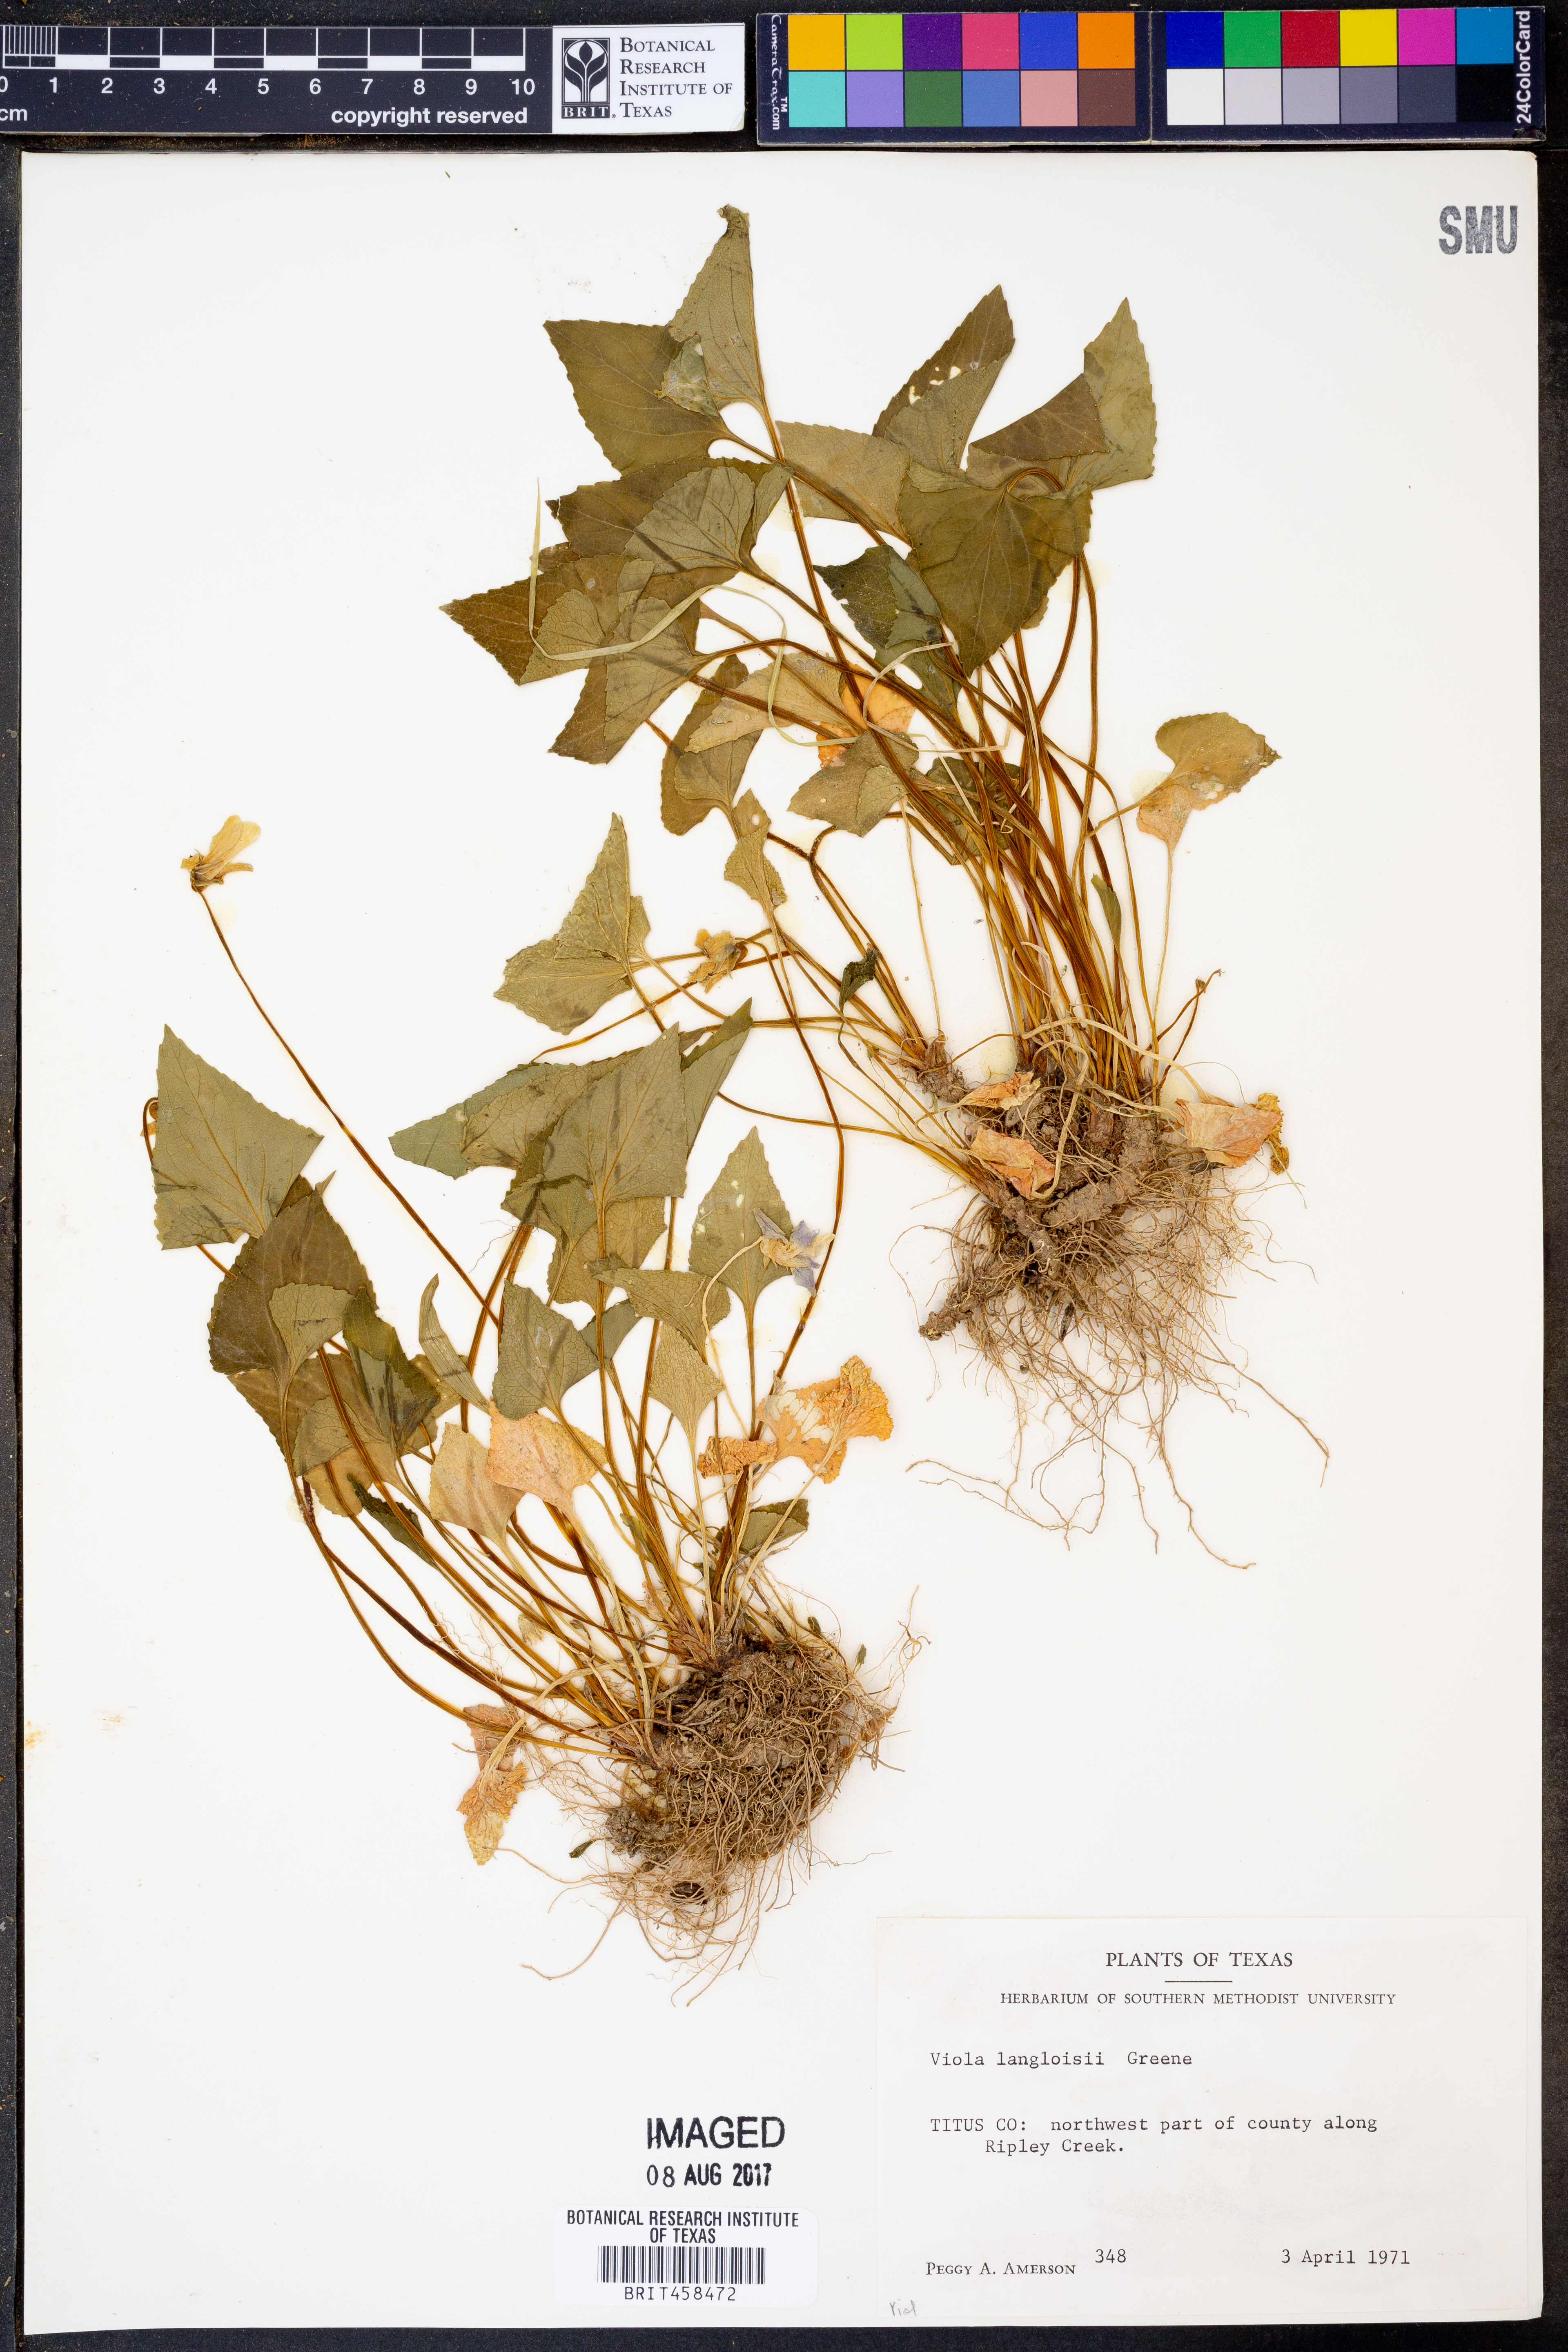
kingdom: Plantae
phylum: Tracheophyta
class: Magnoliopsida
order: Malpighiales
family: Violaceae
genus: Viola
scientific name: Viola langloisii
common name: Langlois' violet
